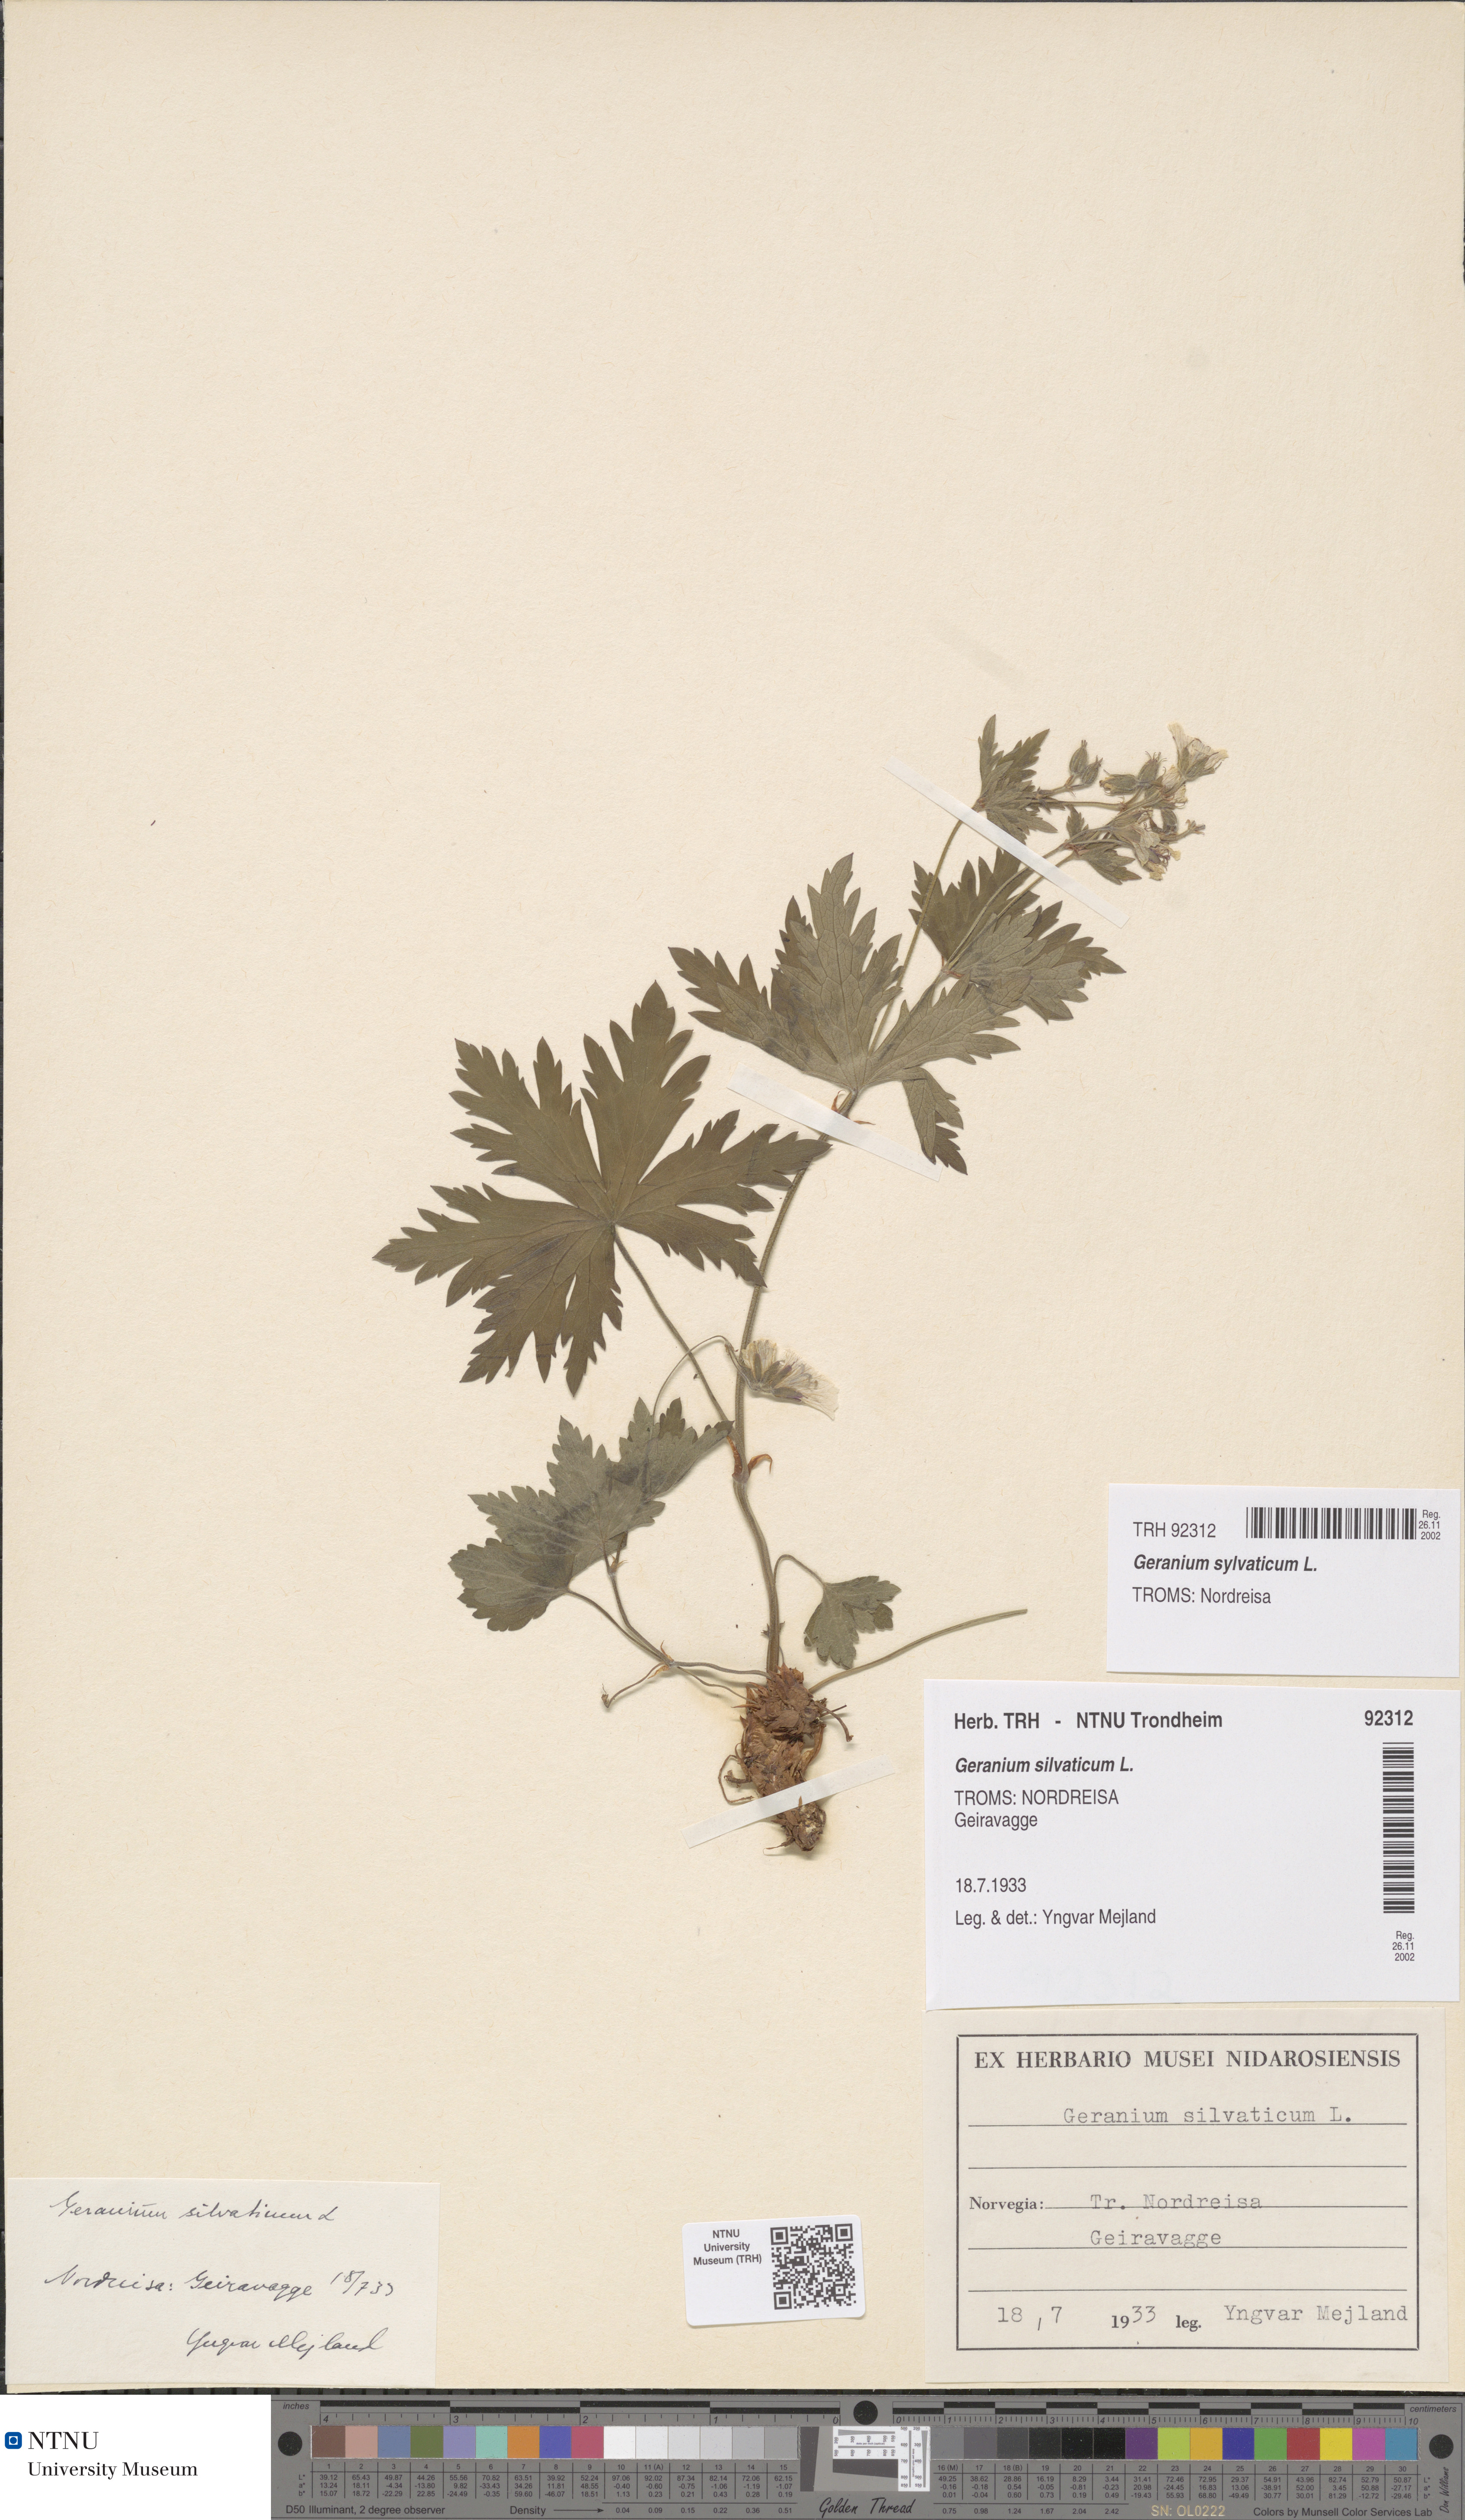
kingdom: Plantae
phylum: Tracheophyta
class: Magnoliopsida
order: Geraniales
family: Geraniaceae
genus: Geranium
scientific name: Geranium sylvaticum
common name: Wood crane's-bill
